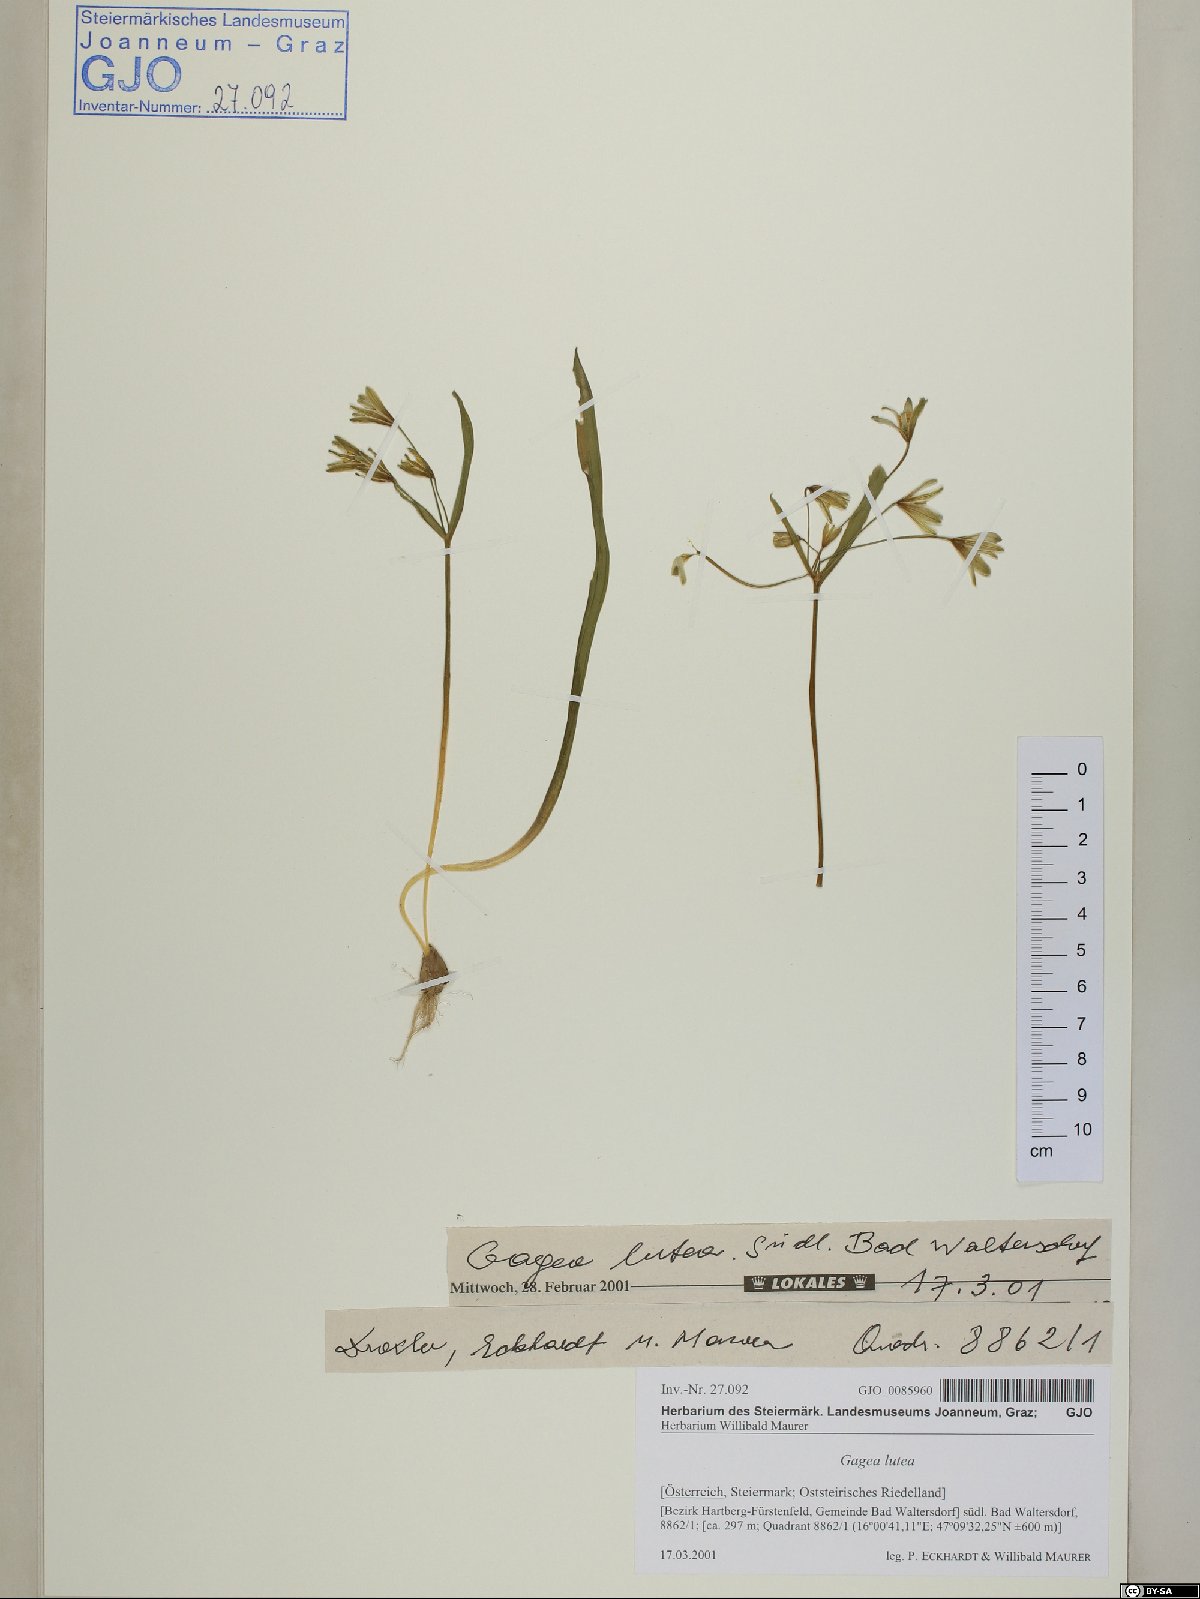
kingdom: Plantae
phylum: Tracheophyta
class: Liliopsida
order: Liliales
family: Liliaceae
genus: Gagea
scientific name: Gagea lutea
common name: Yellow star-of-bethlehem
